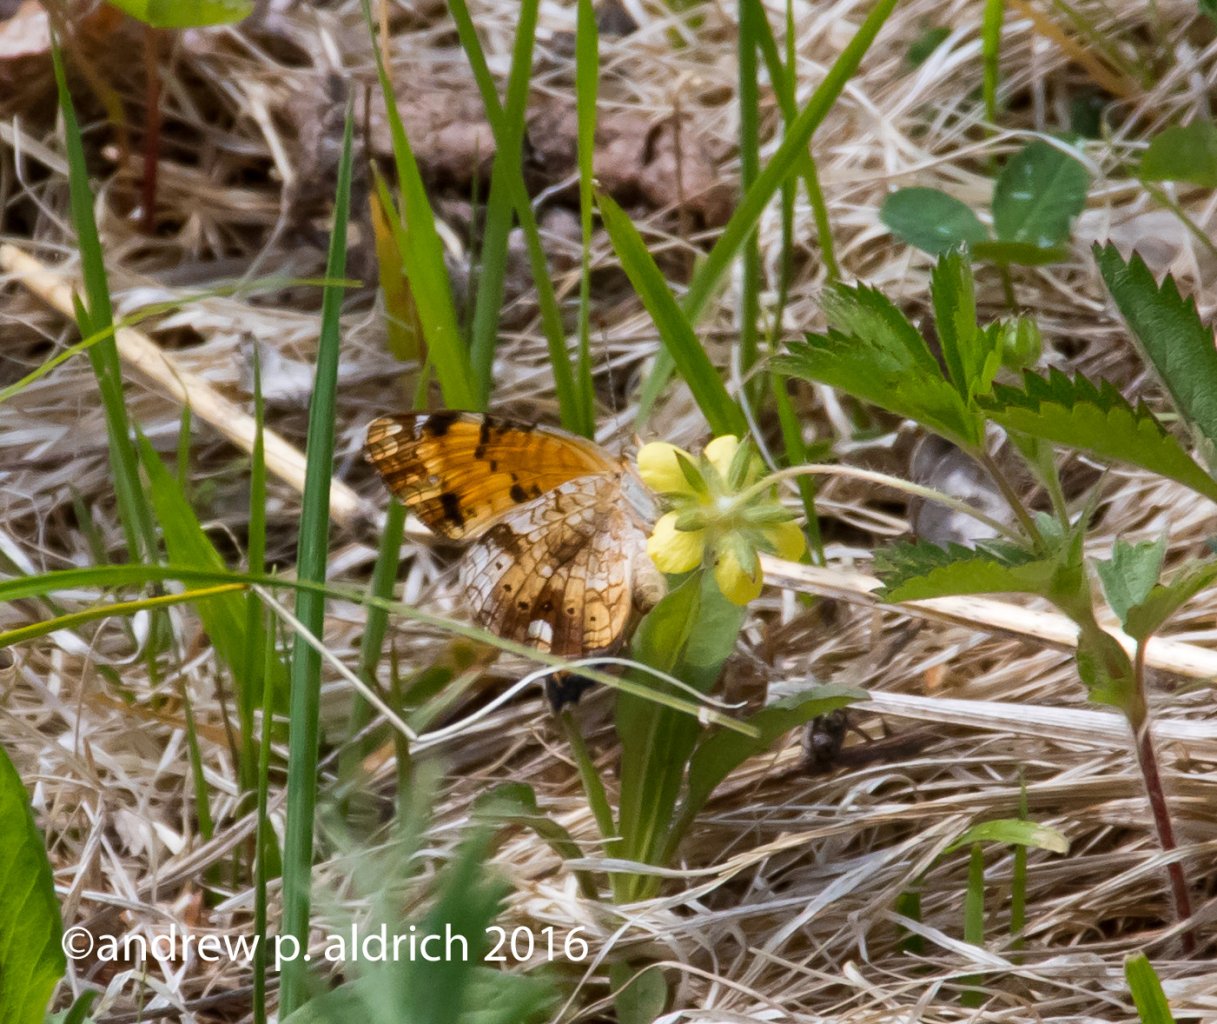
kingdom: Animalia
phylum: Arthropoda
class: Insecta
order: Lepidoptera
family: Nymphalidae
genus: Phyciodes
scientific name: Phyciodes
